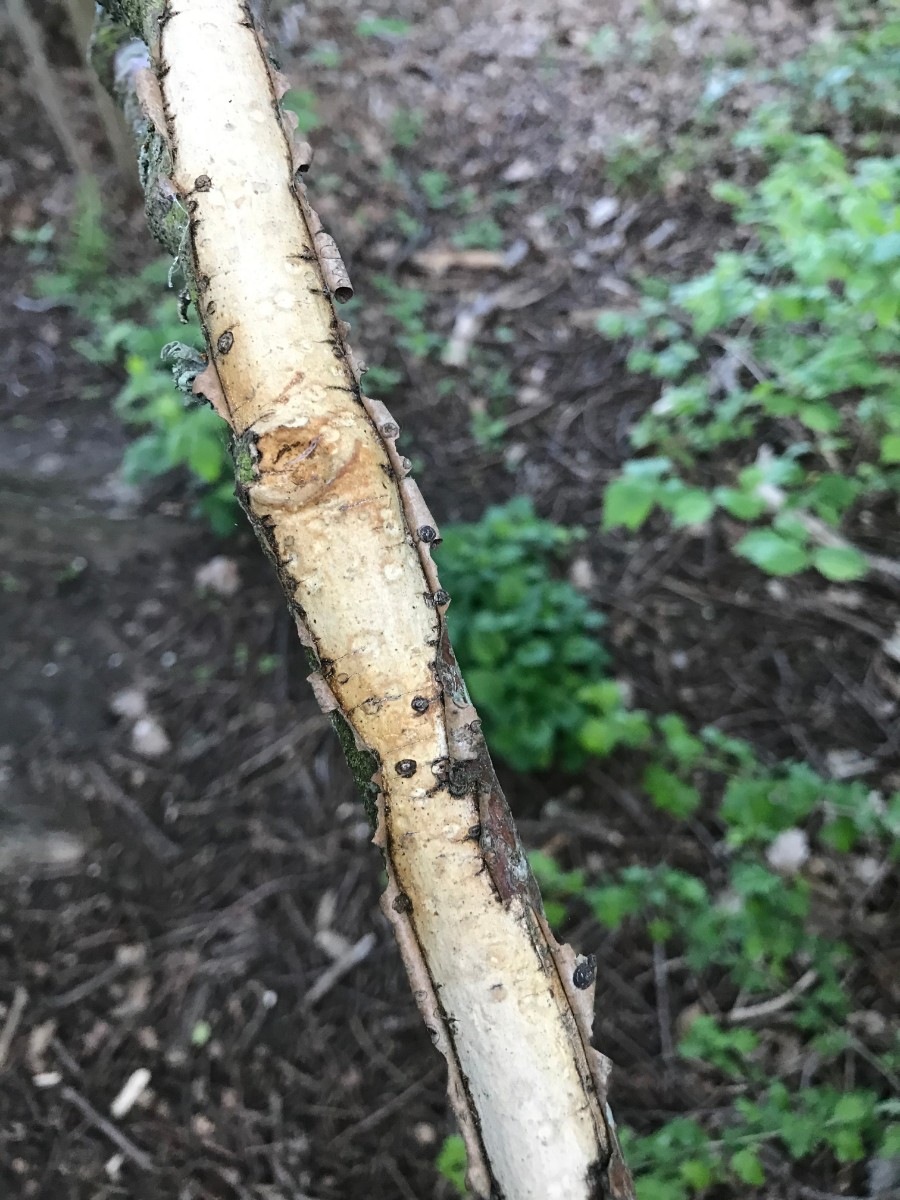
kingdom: Fungi
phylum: Basidiomycota
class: Agaricomycetes
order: Corticiales
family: Vuilleminiaceae
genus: Vuilleminia
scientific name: Vuilleminia cystidiata
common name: tjørne-barksprænger
